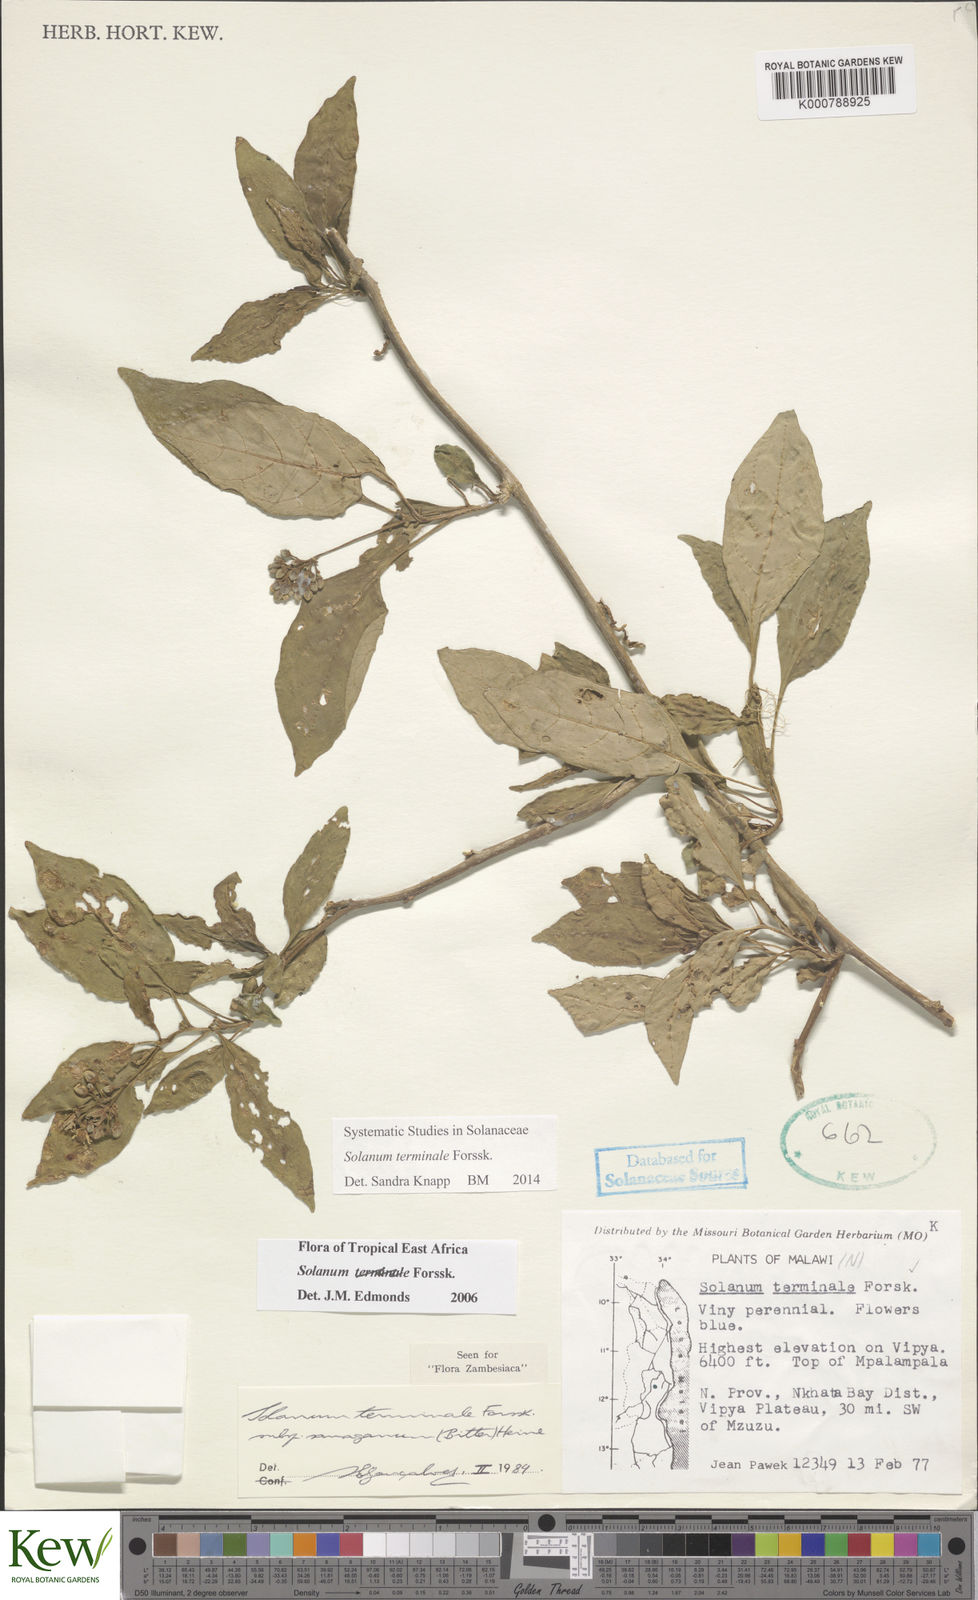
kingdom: Plantae
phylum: Tracheophyta
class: Magnoliopsida
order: Solanales
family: Solanaceae
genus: Solanum
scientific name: Solanum terminale
